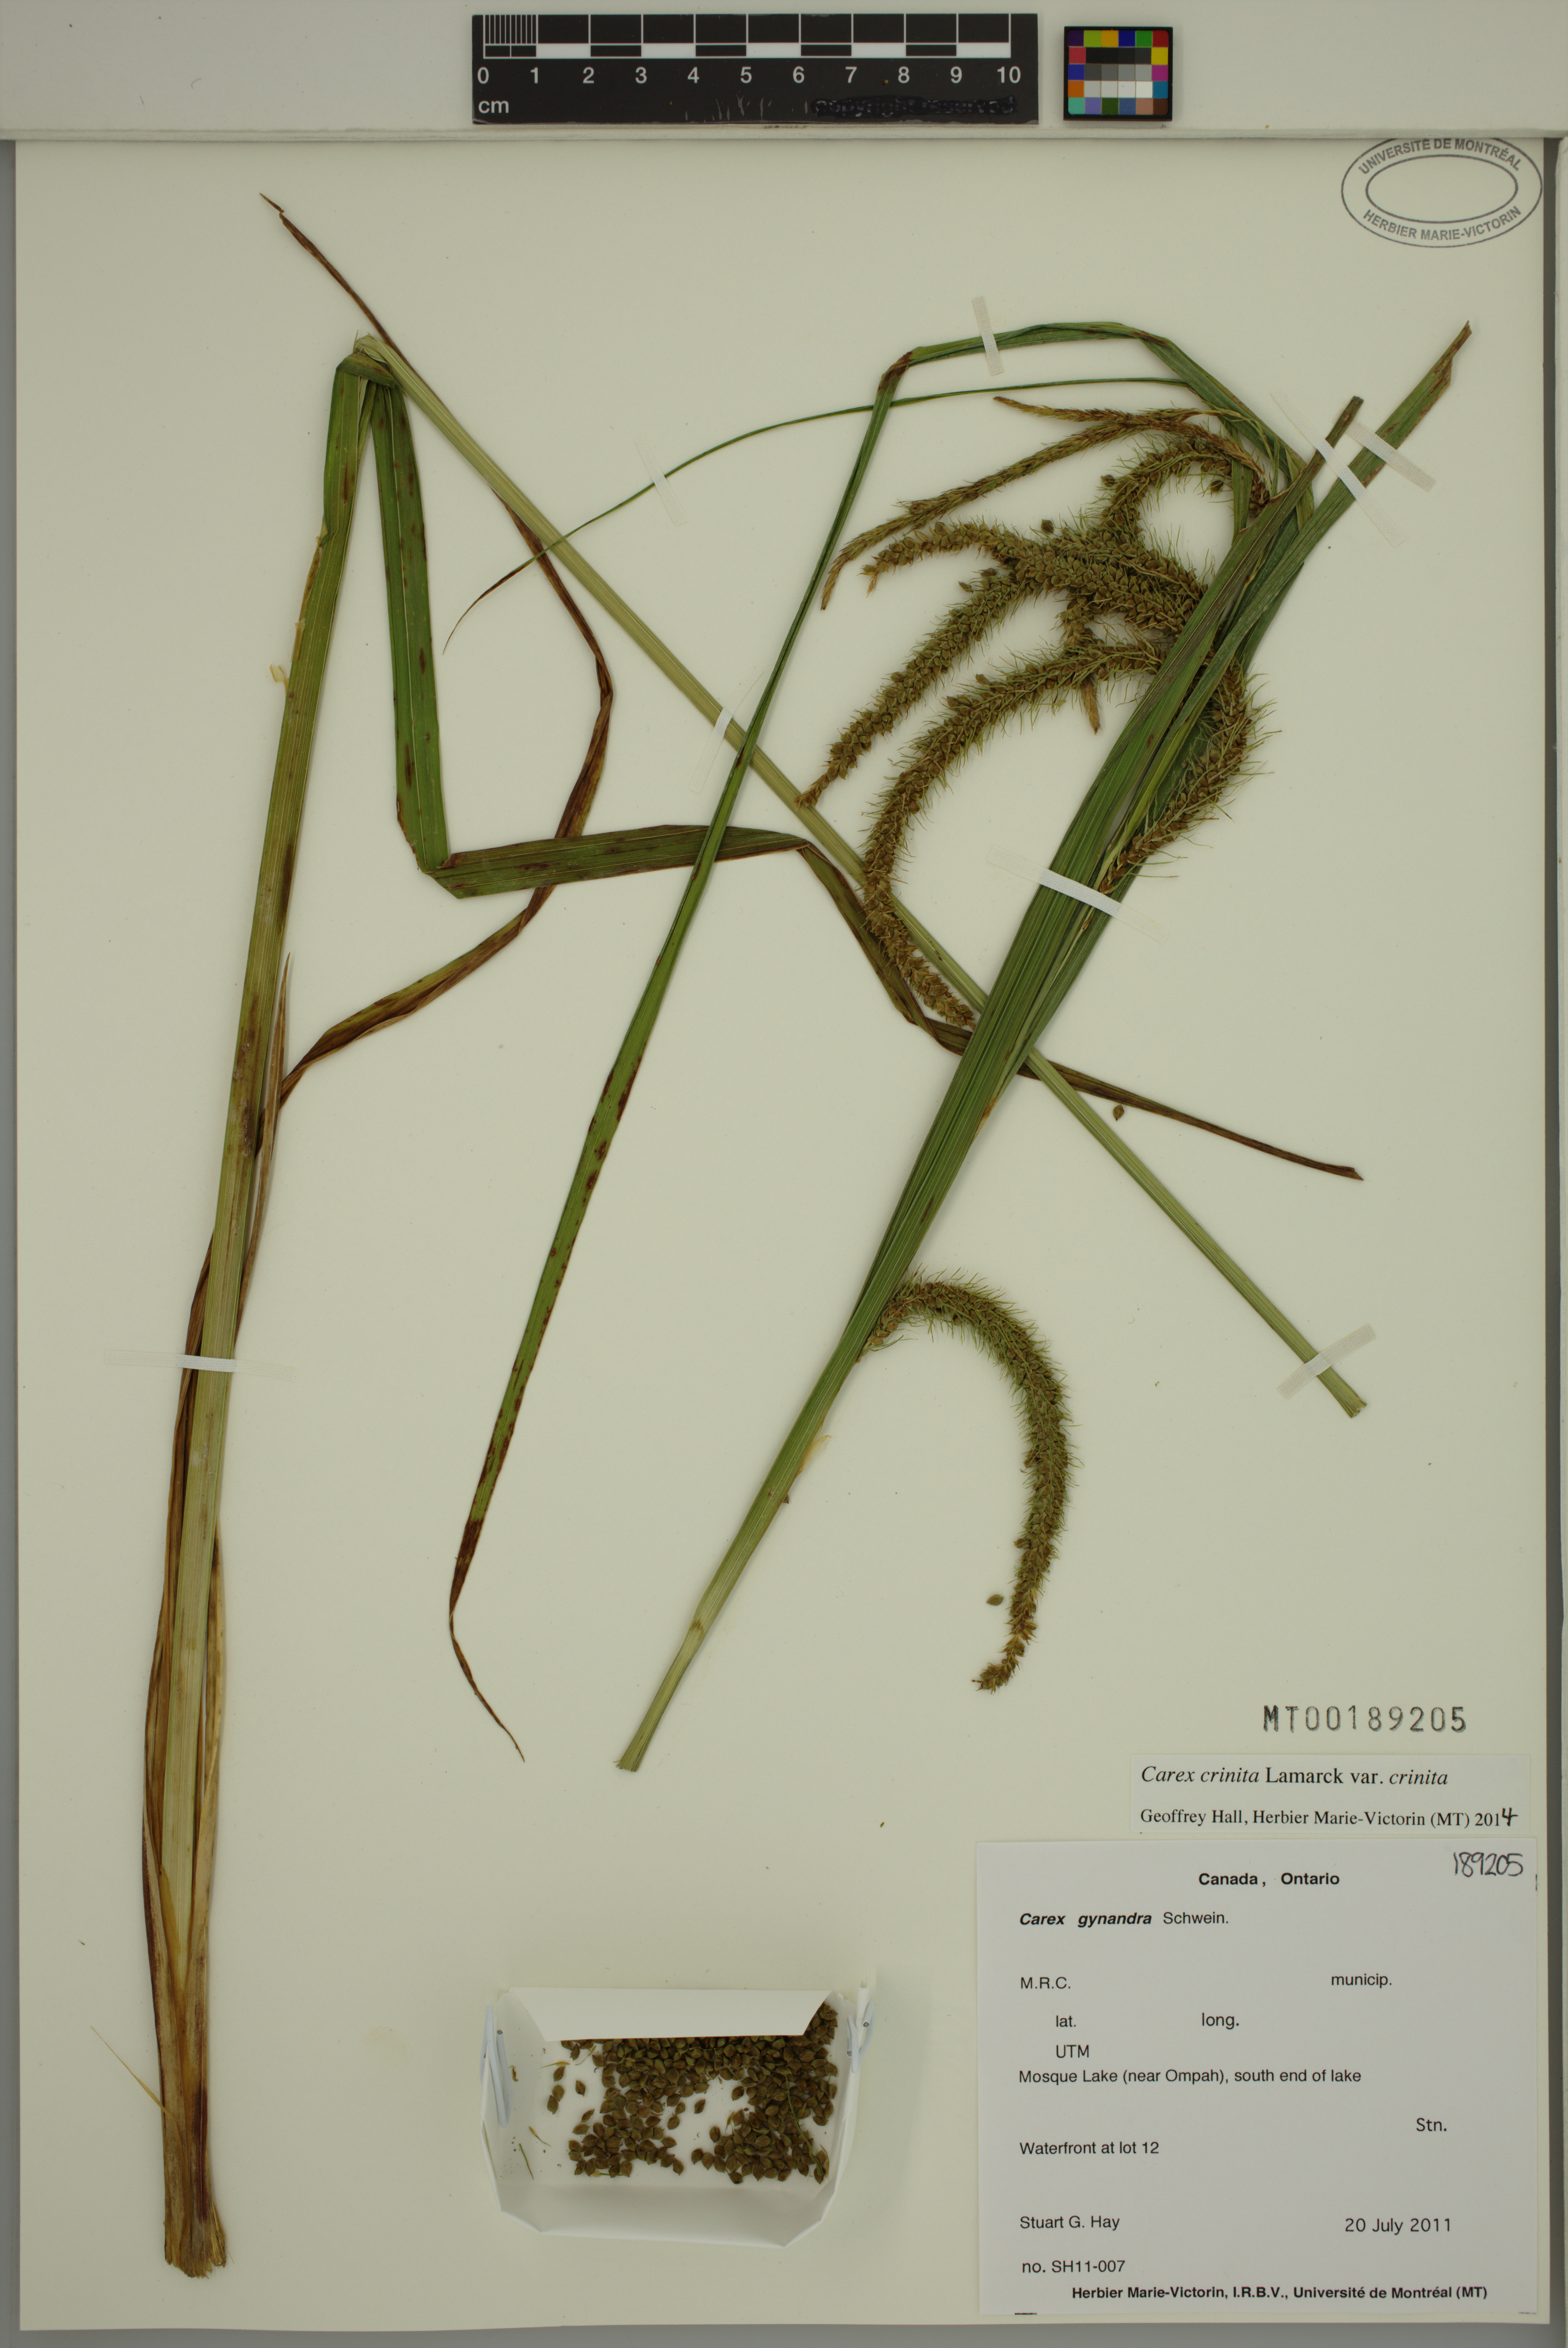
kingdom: Plantae
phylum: Tracheophyta
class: Liliopsida
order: Poales
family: Cyperaceae
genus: Carex
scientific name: Carex crinita
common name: Fringed sedge
